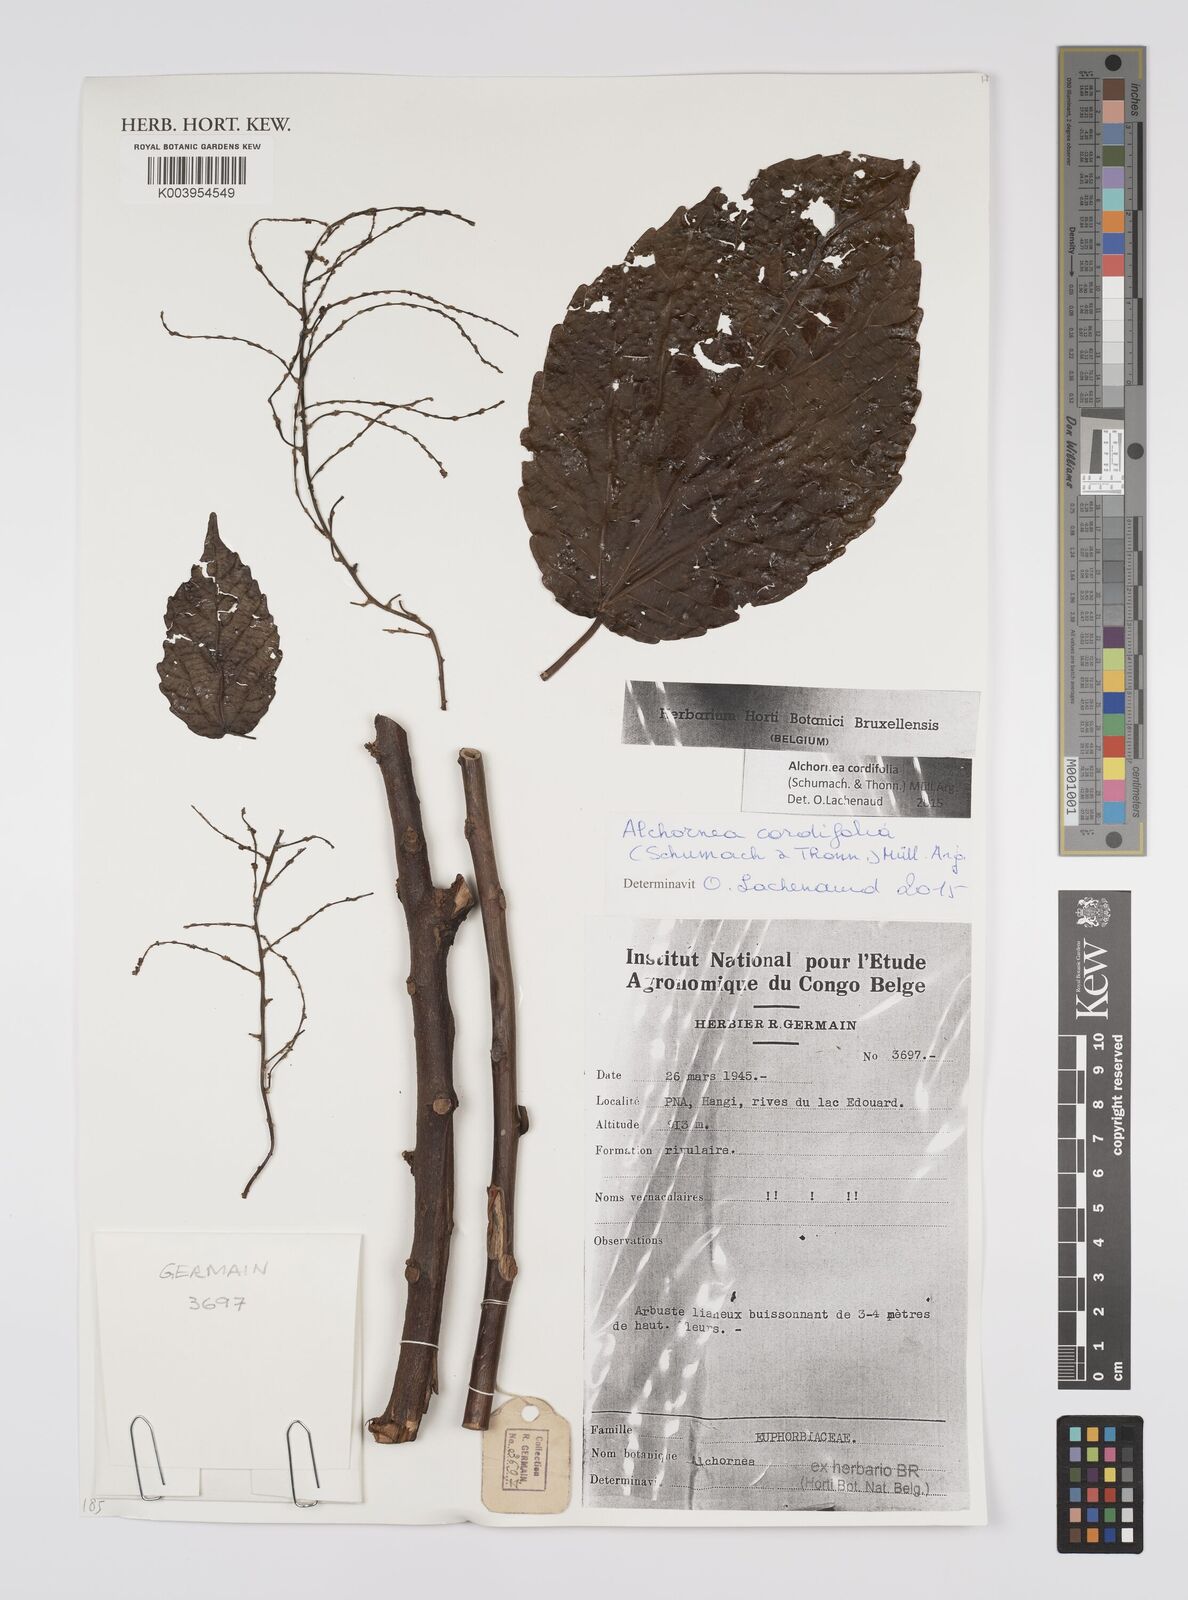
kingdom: Plantae
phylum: Tracheophyta
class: Magnoliopsida
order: Malpighiales
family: Euphorbiaceae
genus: Alchornea
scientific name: Alchornea cordifolia
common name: Christmasbush
